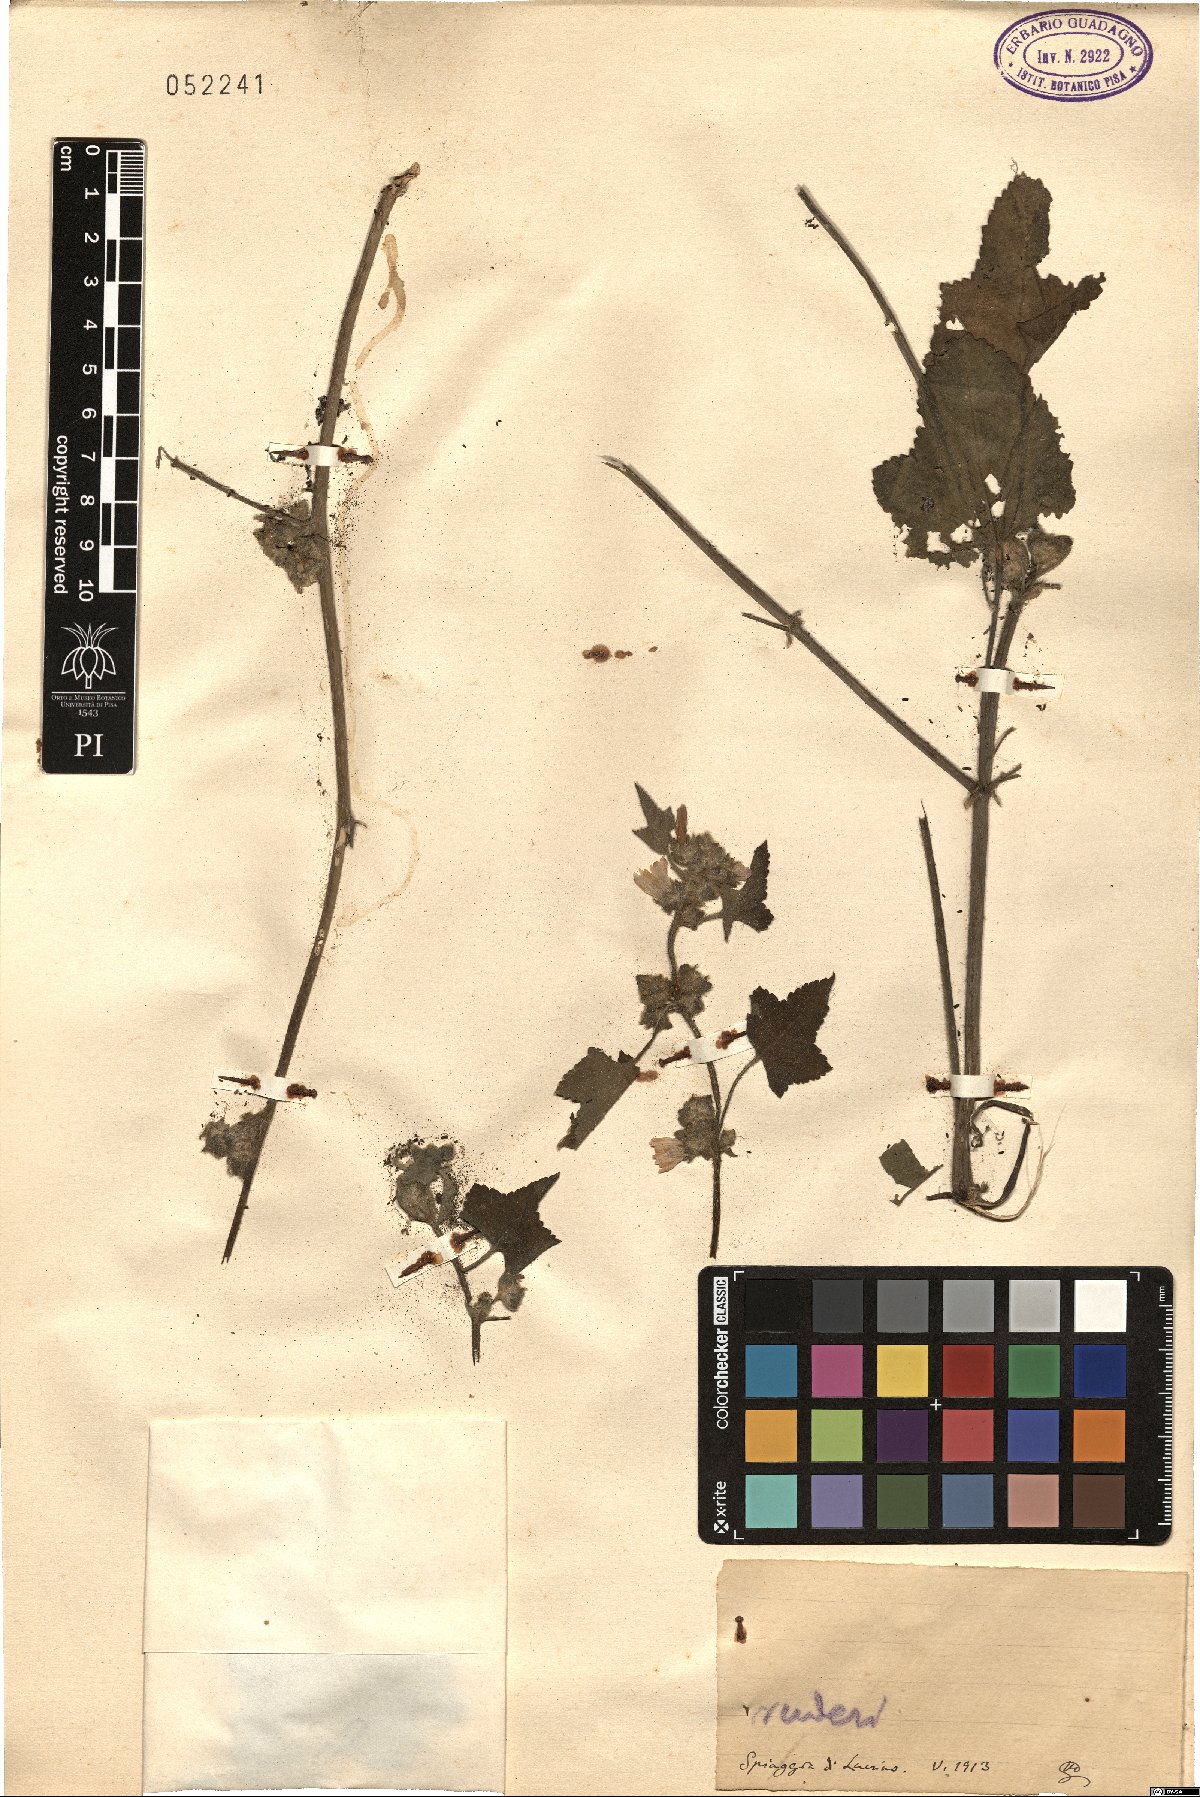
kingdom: Plantae
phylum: Tracheophyta
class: Magnoliopsida
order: Malvales
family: Malvaceae
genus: Malva
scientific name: Malva
